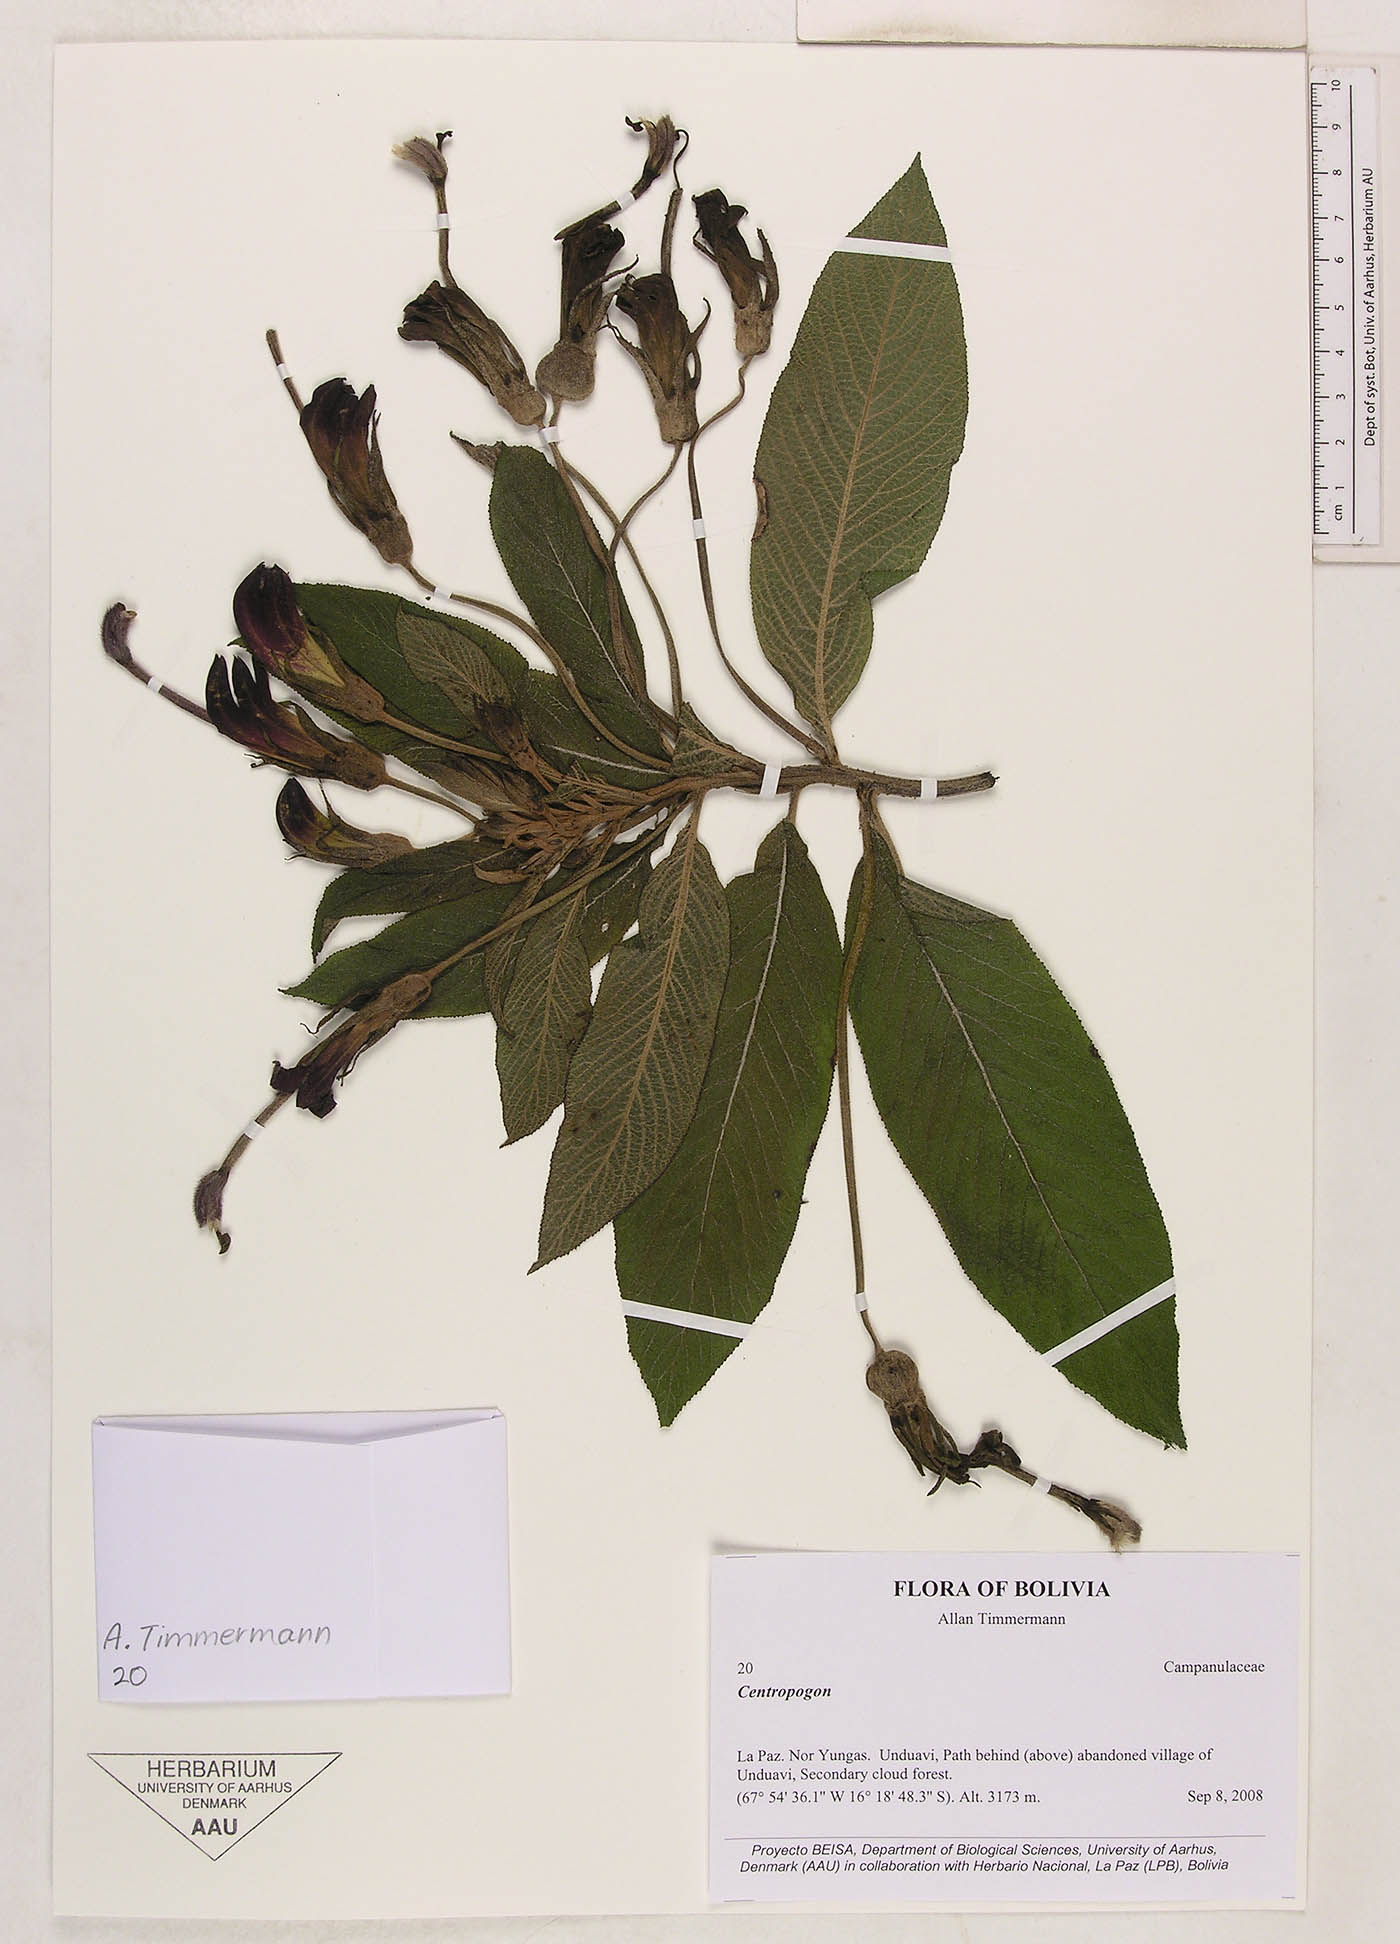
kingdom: Plantae
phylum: Tracheophyta
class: Magnoliopsida
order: Asterales
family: Campanulaceae
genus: Centropogon
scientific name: Centropogon
